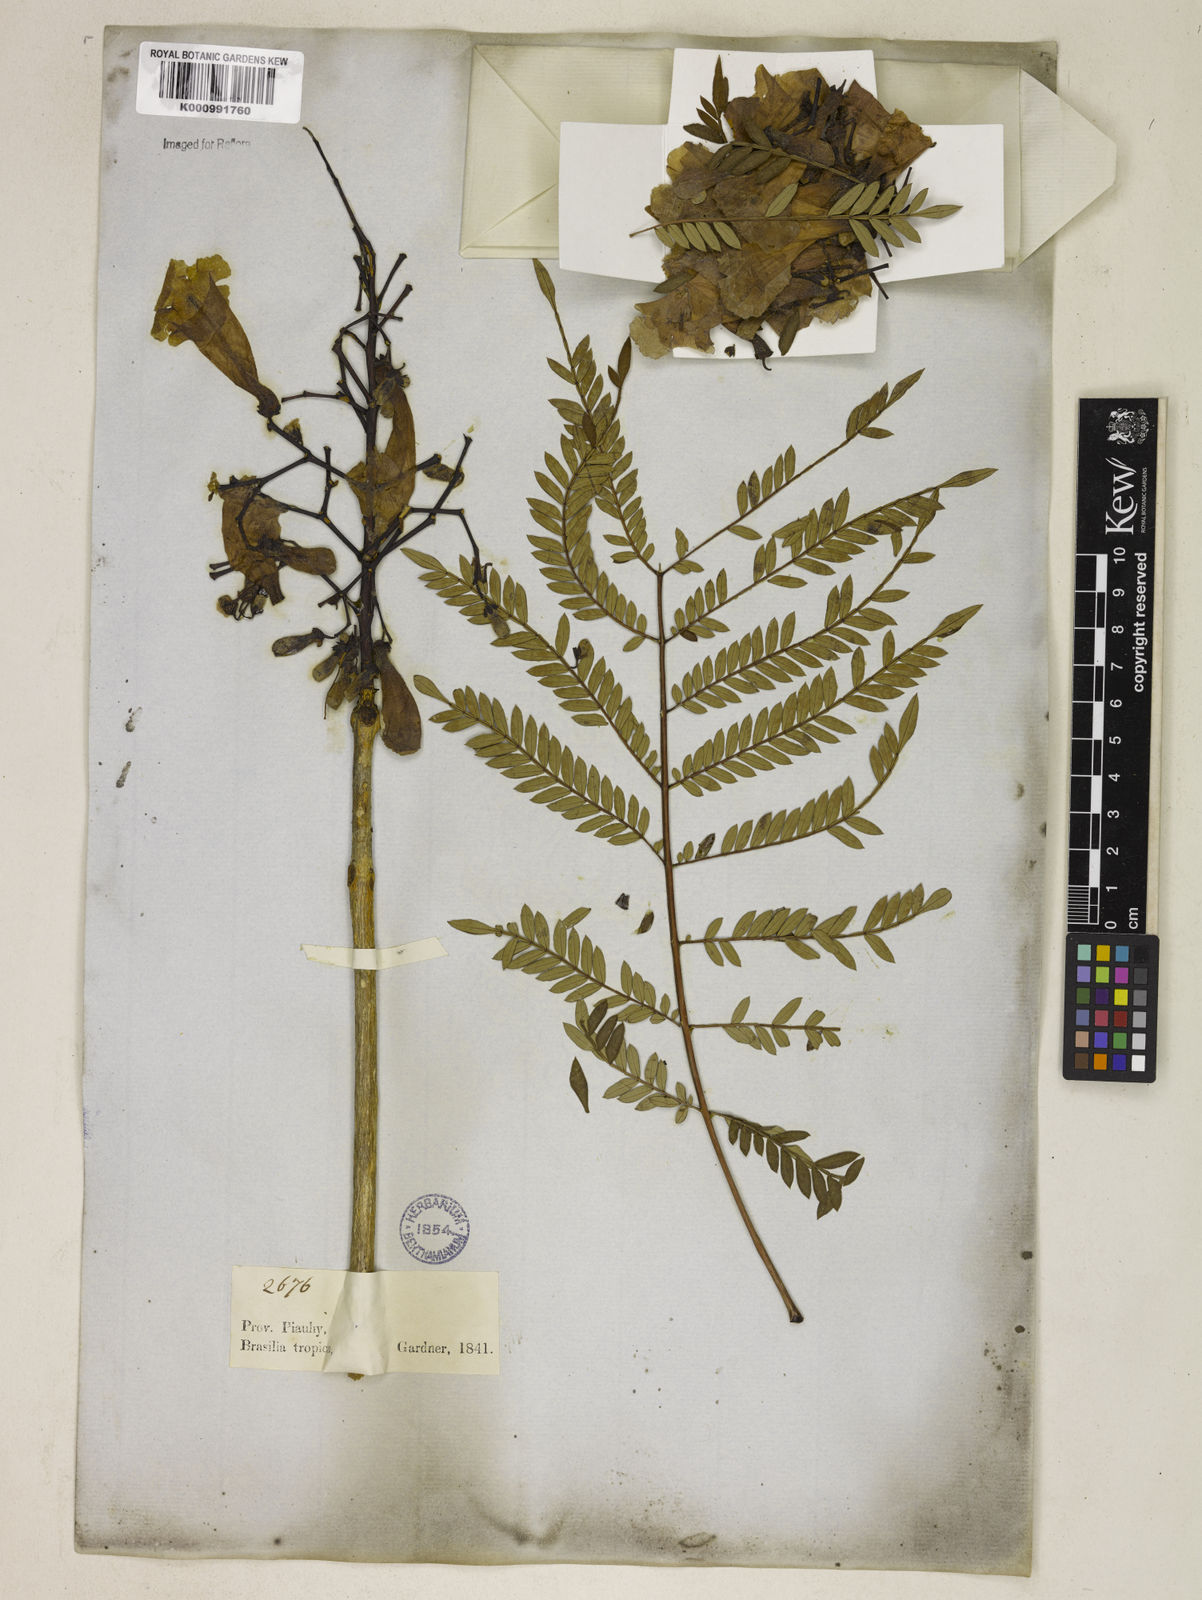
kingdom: Plantae
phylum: Tracheophyta
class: Magnoliopsida
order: Lamiales
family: Bignoniaceae
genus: Jacaranda
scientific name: Jacaranda brasiliana
